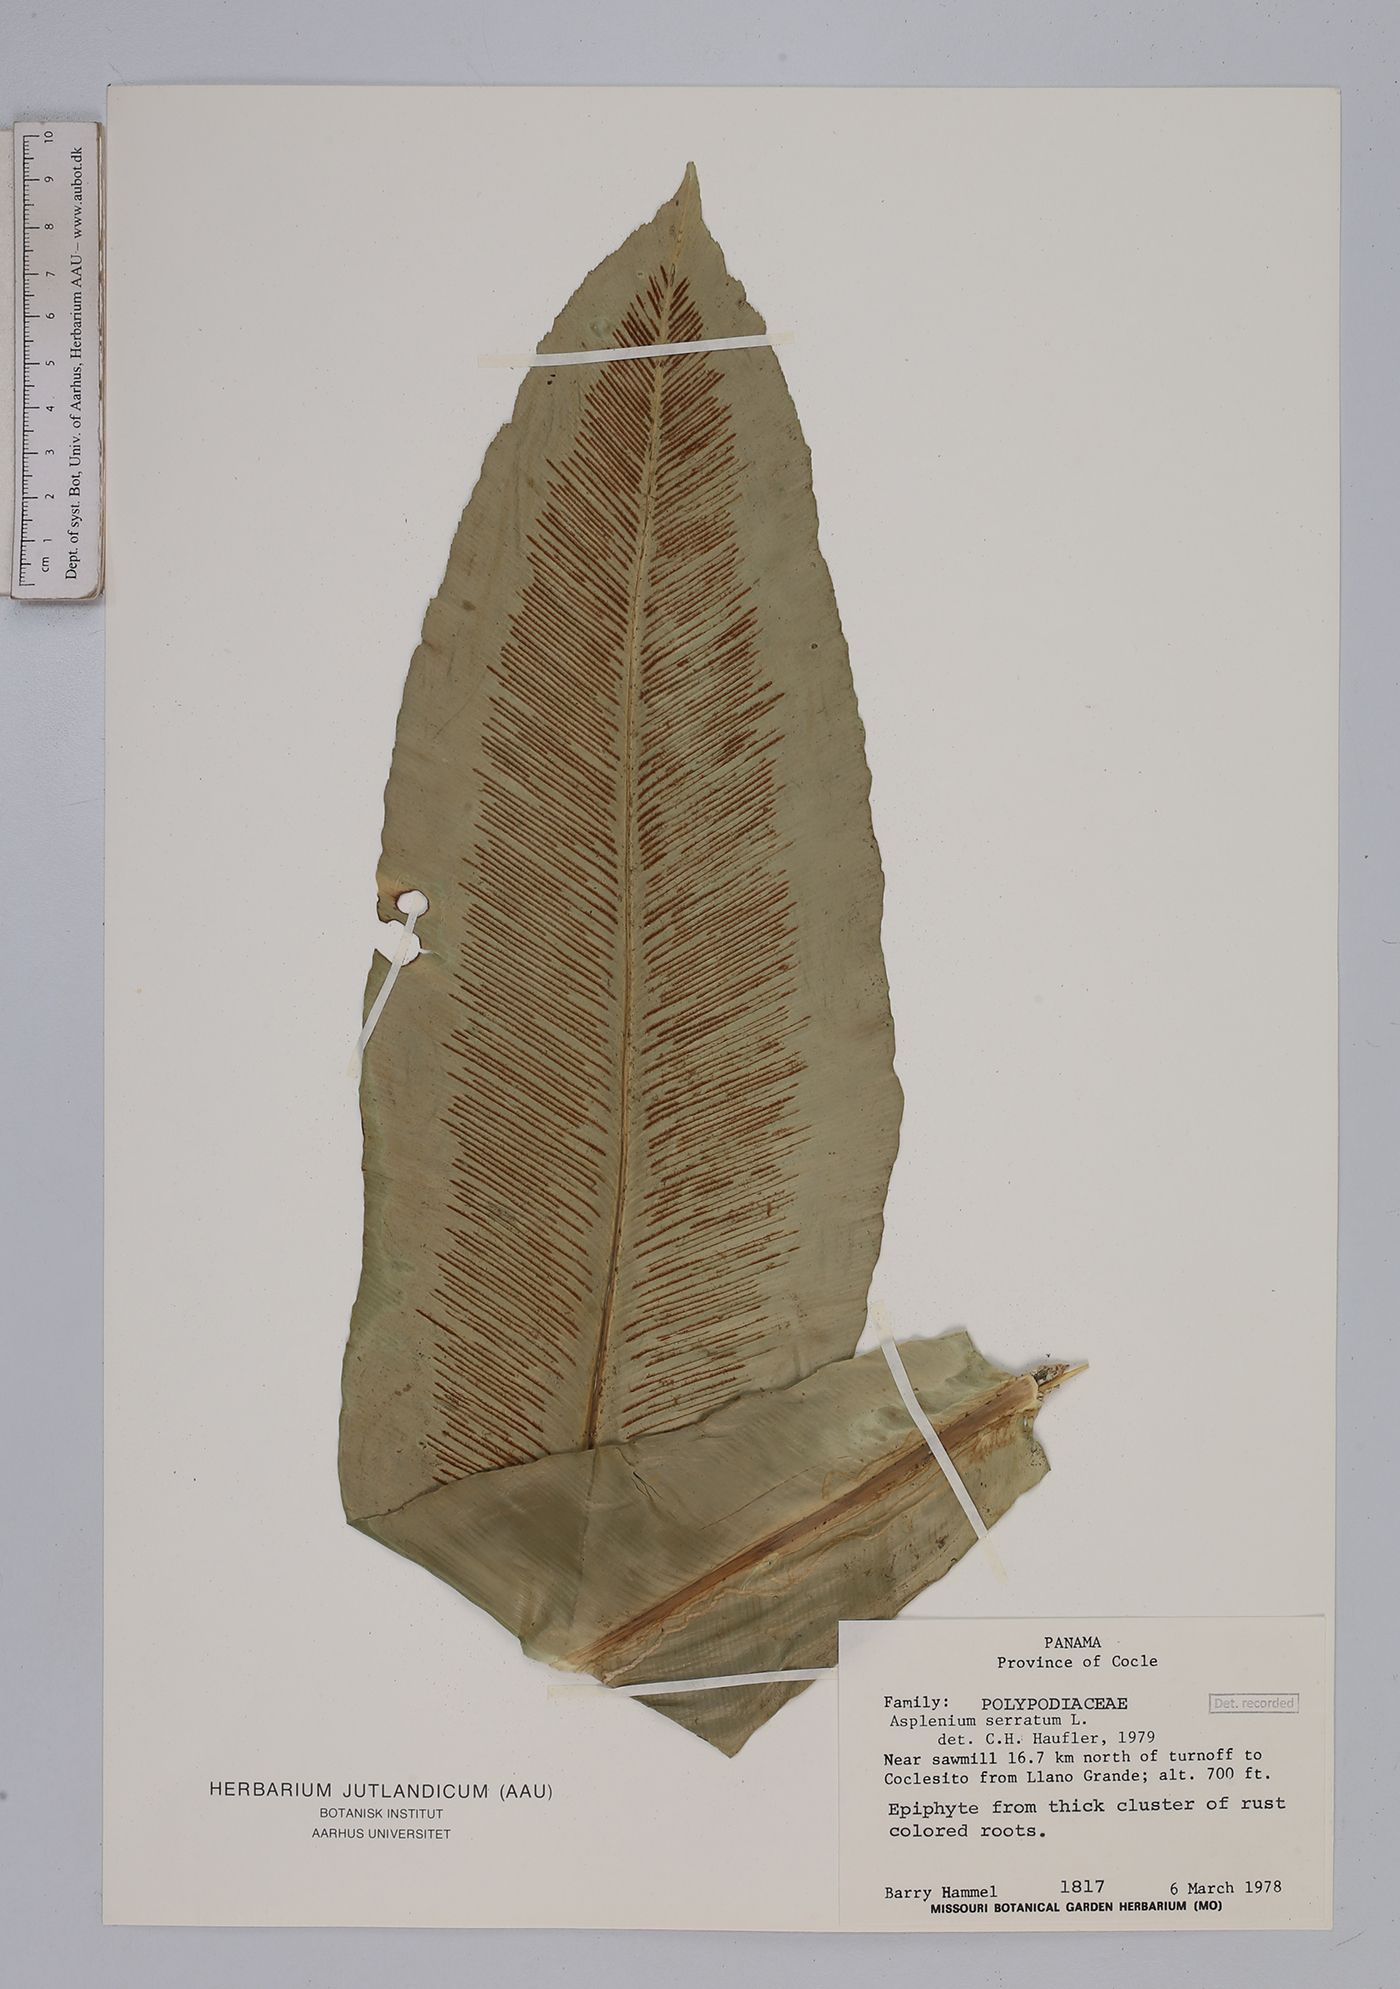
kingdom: Plantae
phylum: Tracheophyta
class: Polypodiopsida
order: Polypodiales
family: Aspleniaceae
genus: Asplenium
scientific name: Asplenium serratum
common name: Wild birdnest fern
